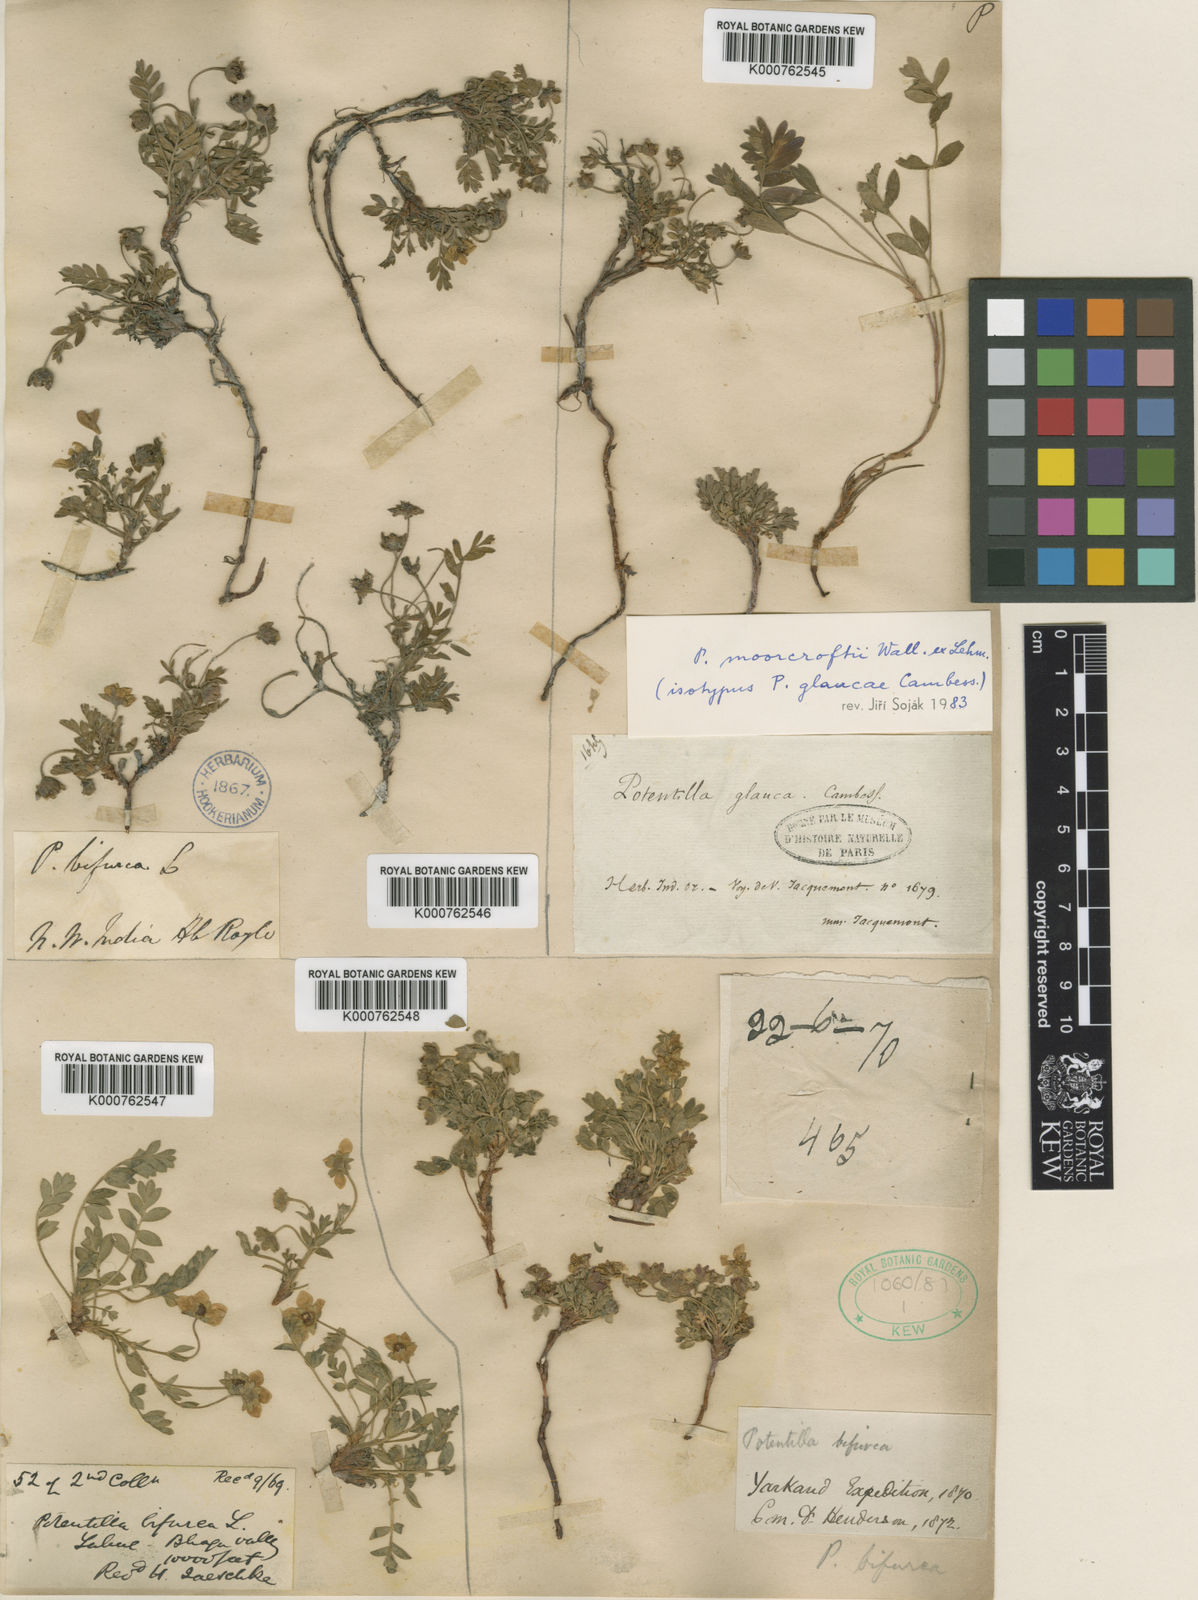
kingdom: Plantae
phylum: Tracheophyta
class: Magnoliopsida
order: Rosales
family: Rosaceae
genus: Potentilla
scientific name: Potentilla
